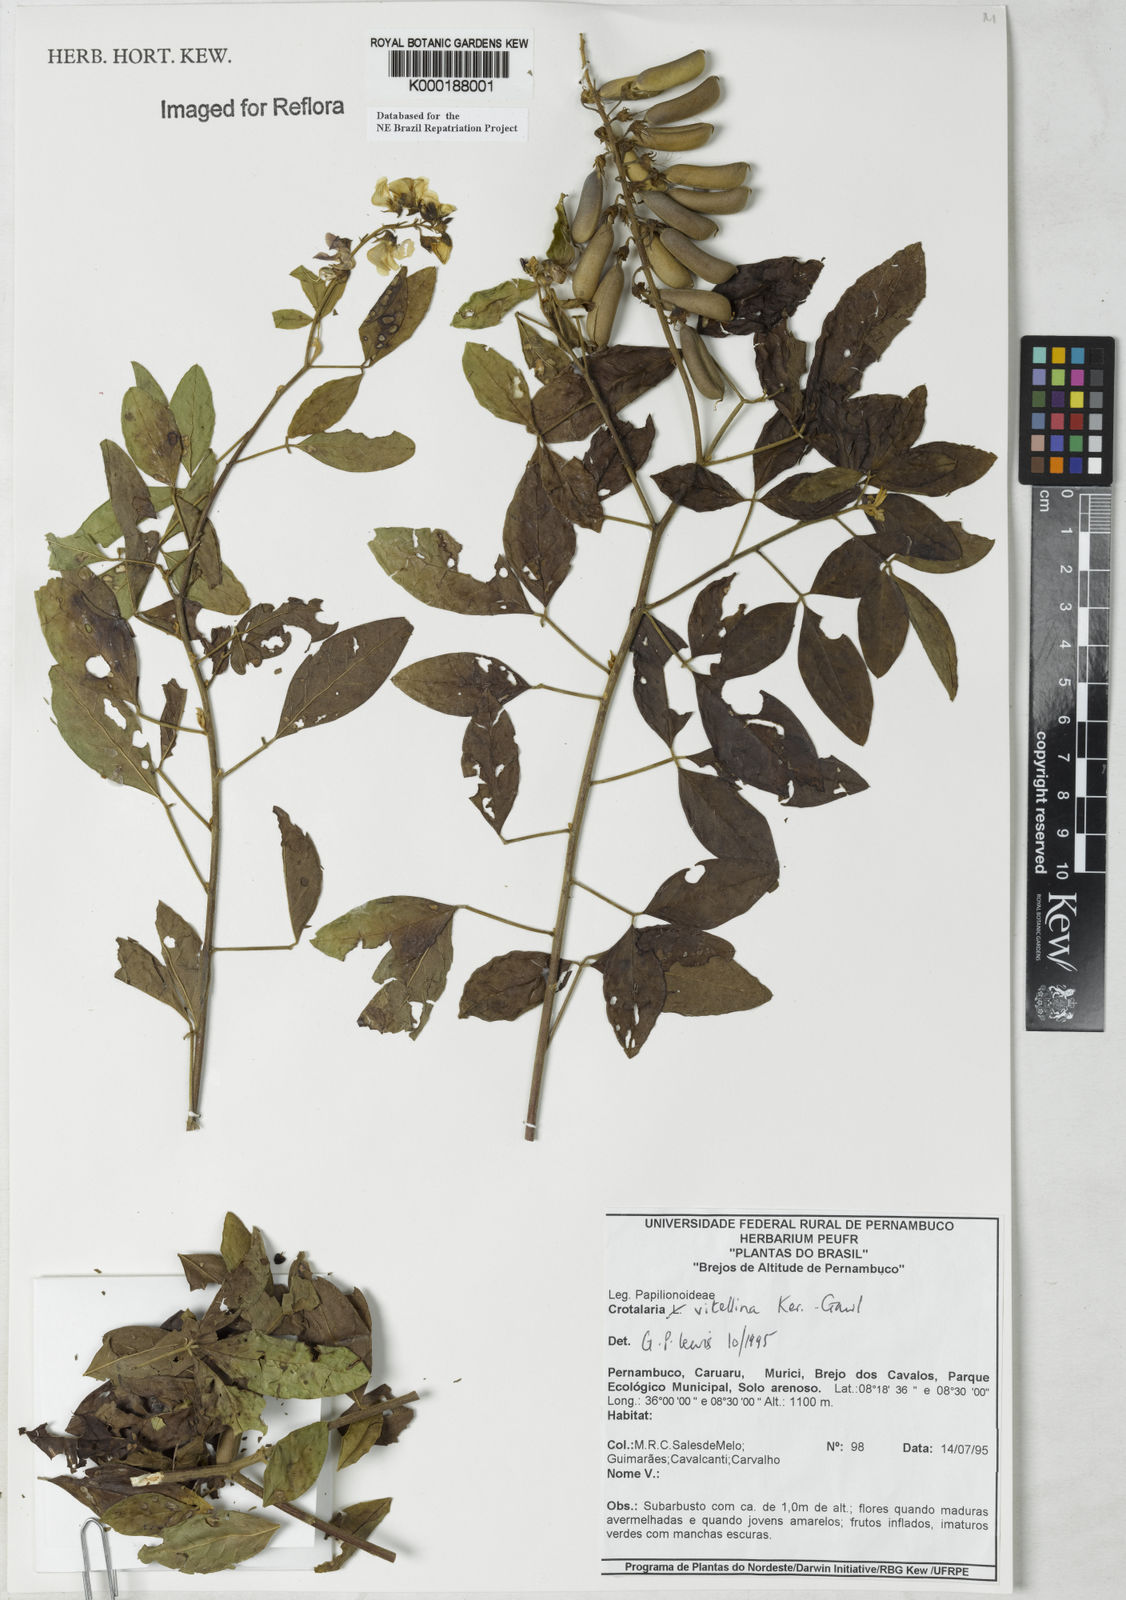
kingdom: Plantae
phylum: Tracheophyta
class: Magnoliopsida
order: Fabales
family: Fabaceae
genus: Crotalaria
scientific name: Crotalaria vitellina
